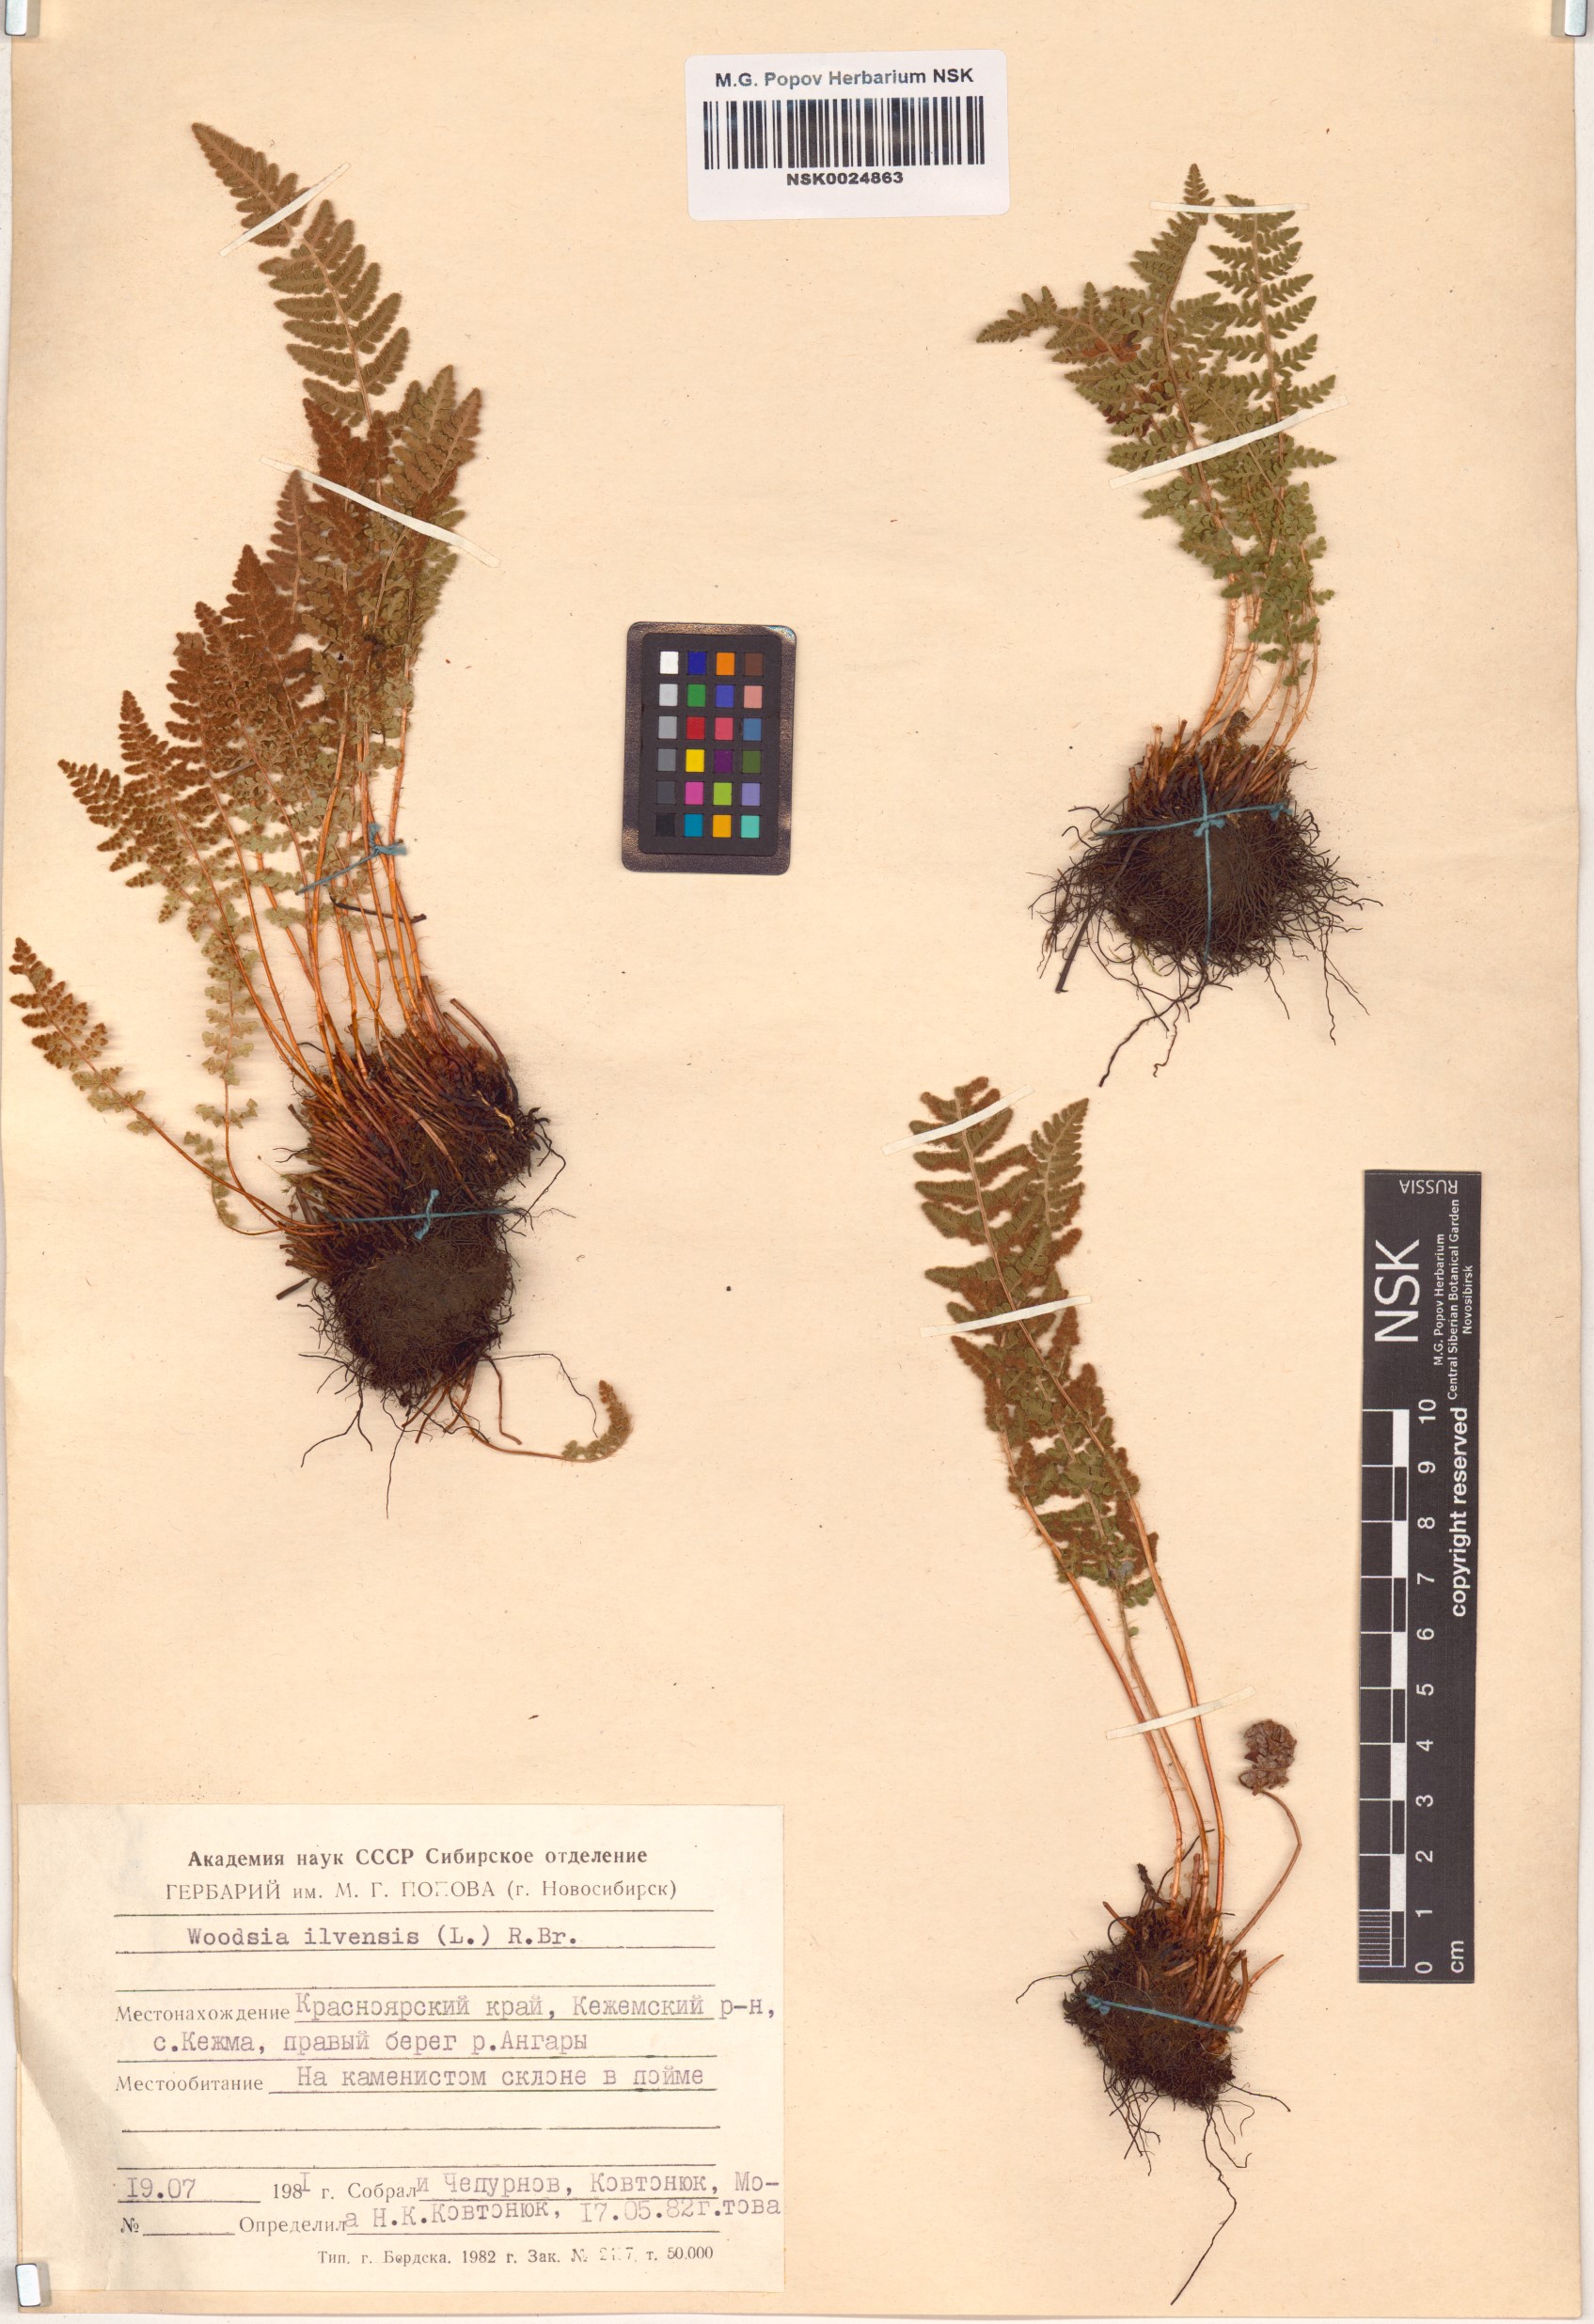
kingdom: Plantae
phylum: Tracheophyta
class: Polypodiopsida
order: Polypodiales
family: Woodsiaceae
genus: Woodsia
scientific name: Woodsia ilvensis
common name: Fragrant woodsia
